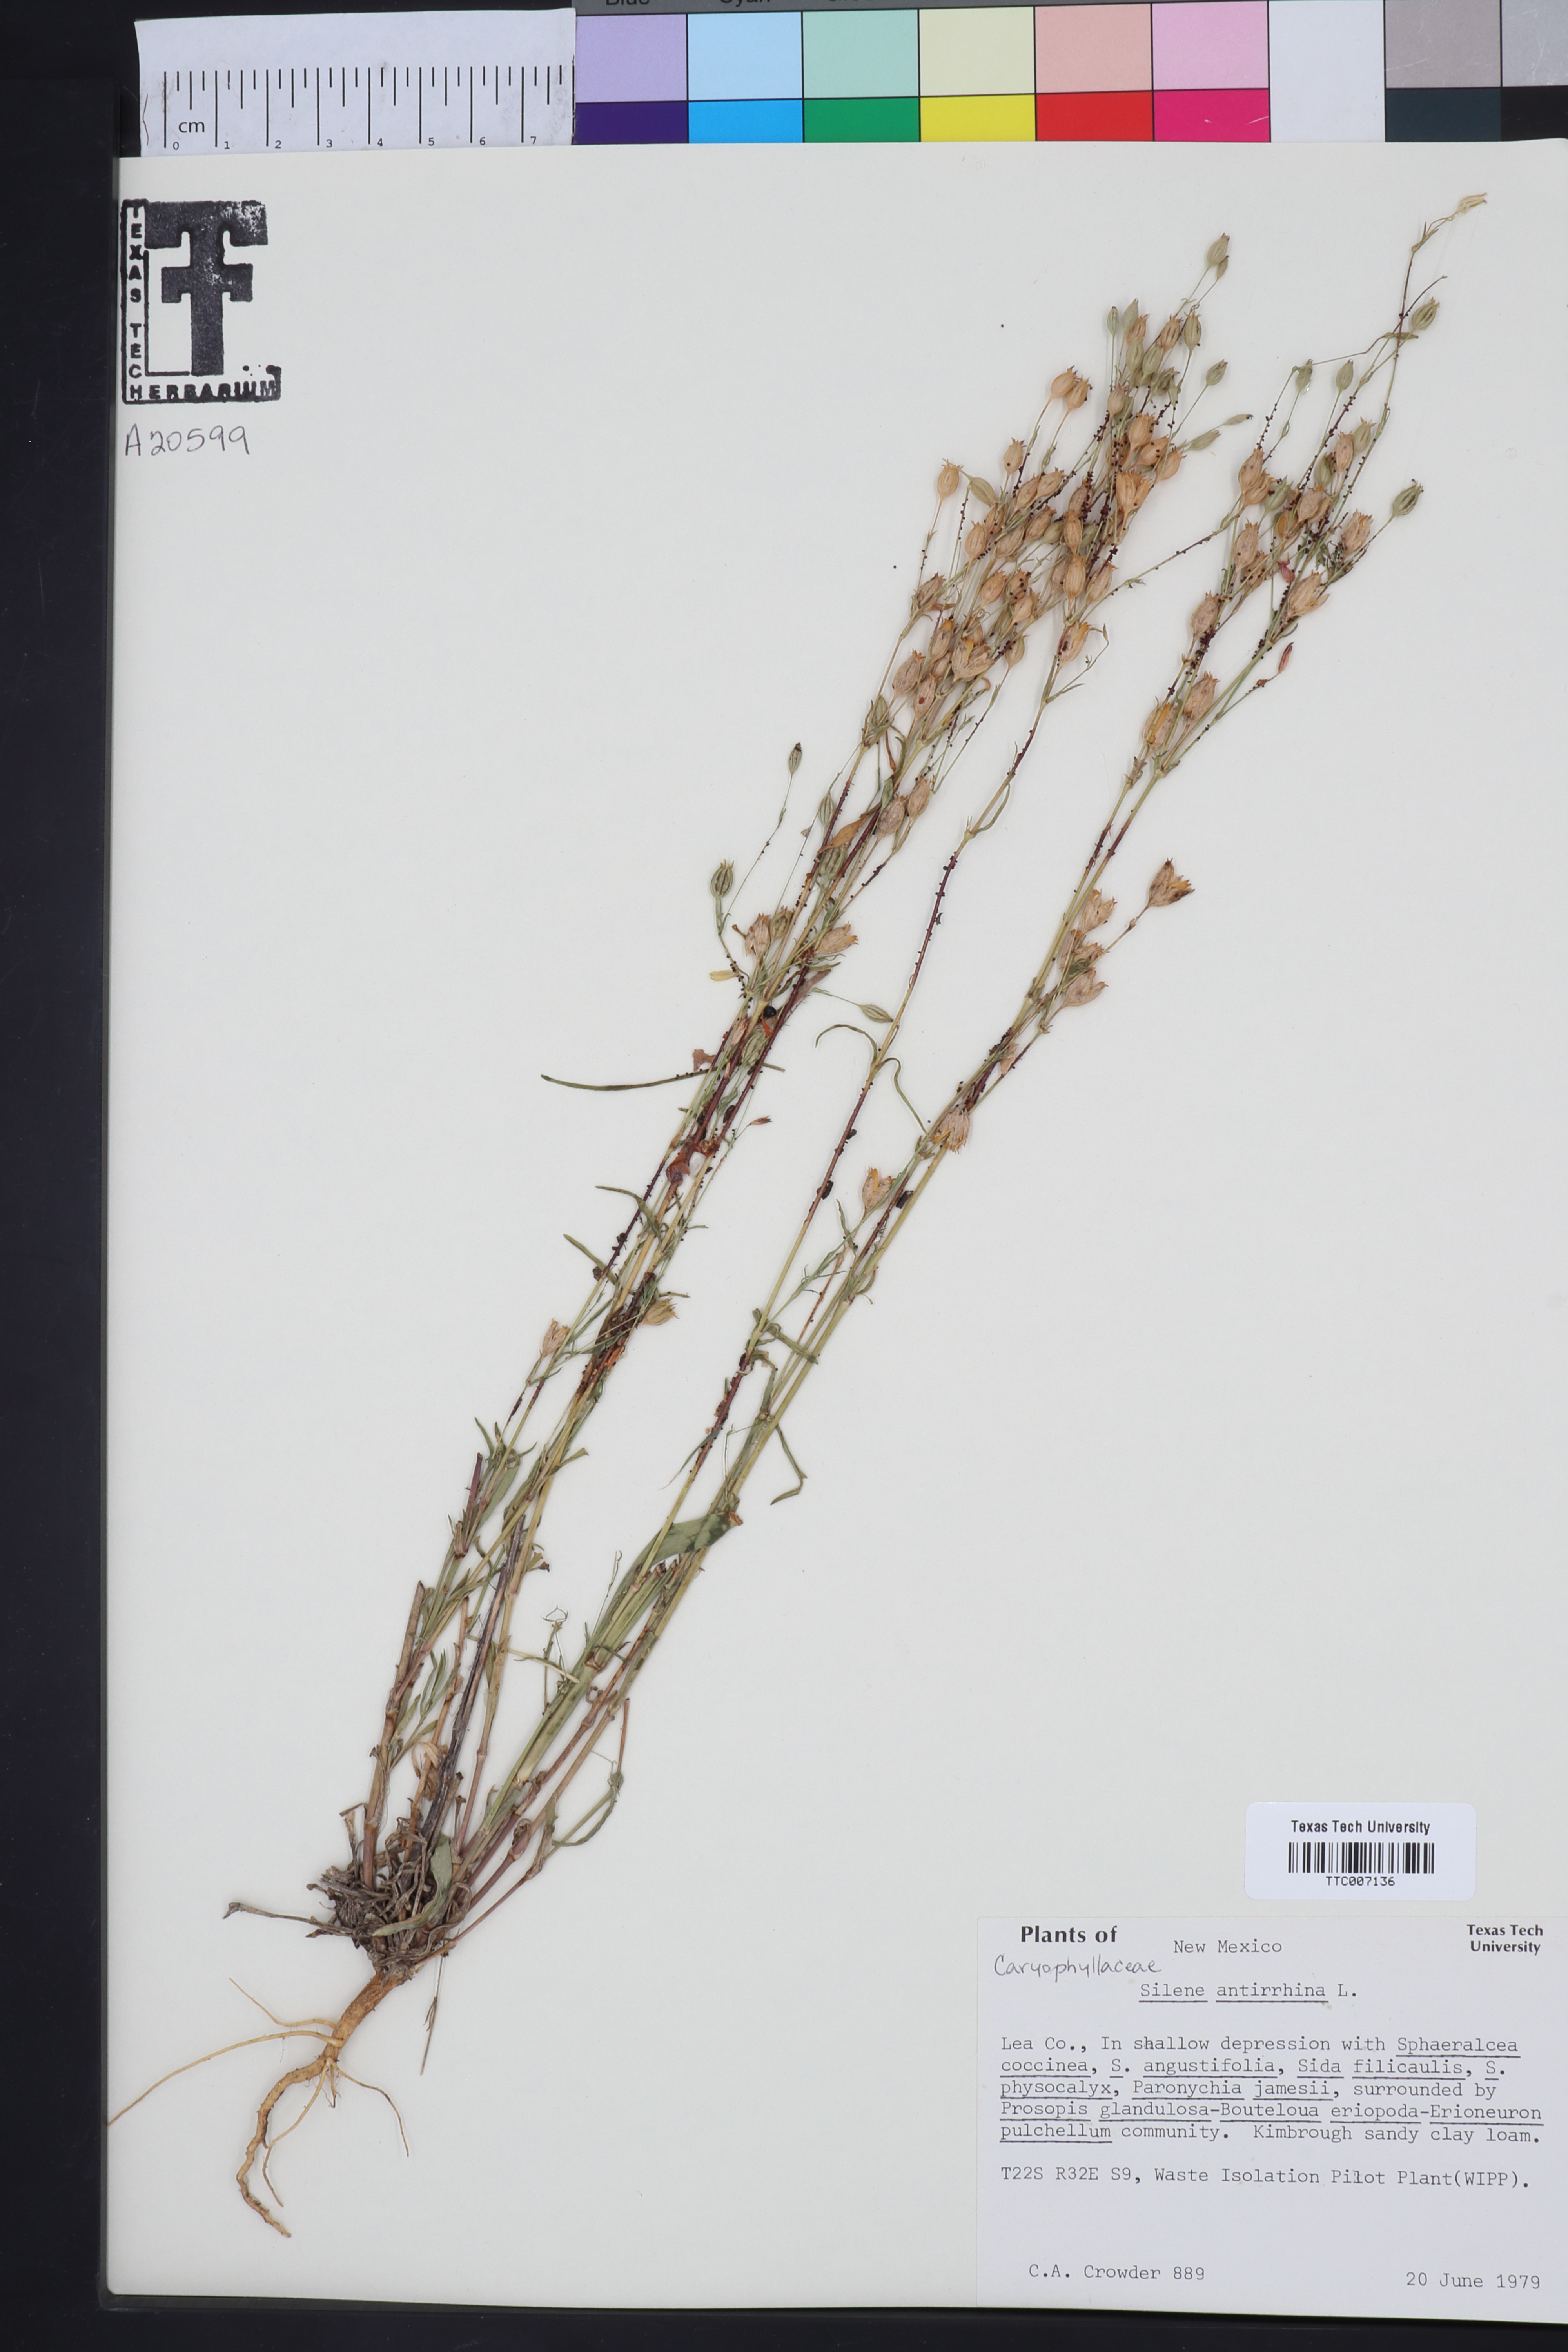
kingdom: Plantae
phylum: Tracheophyta
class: Magnoliopsida
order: Caryophyllales
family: Caryophyllaceae
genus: Silene
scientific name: Silene antirrhina
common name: Sleepy catchfly
